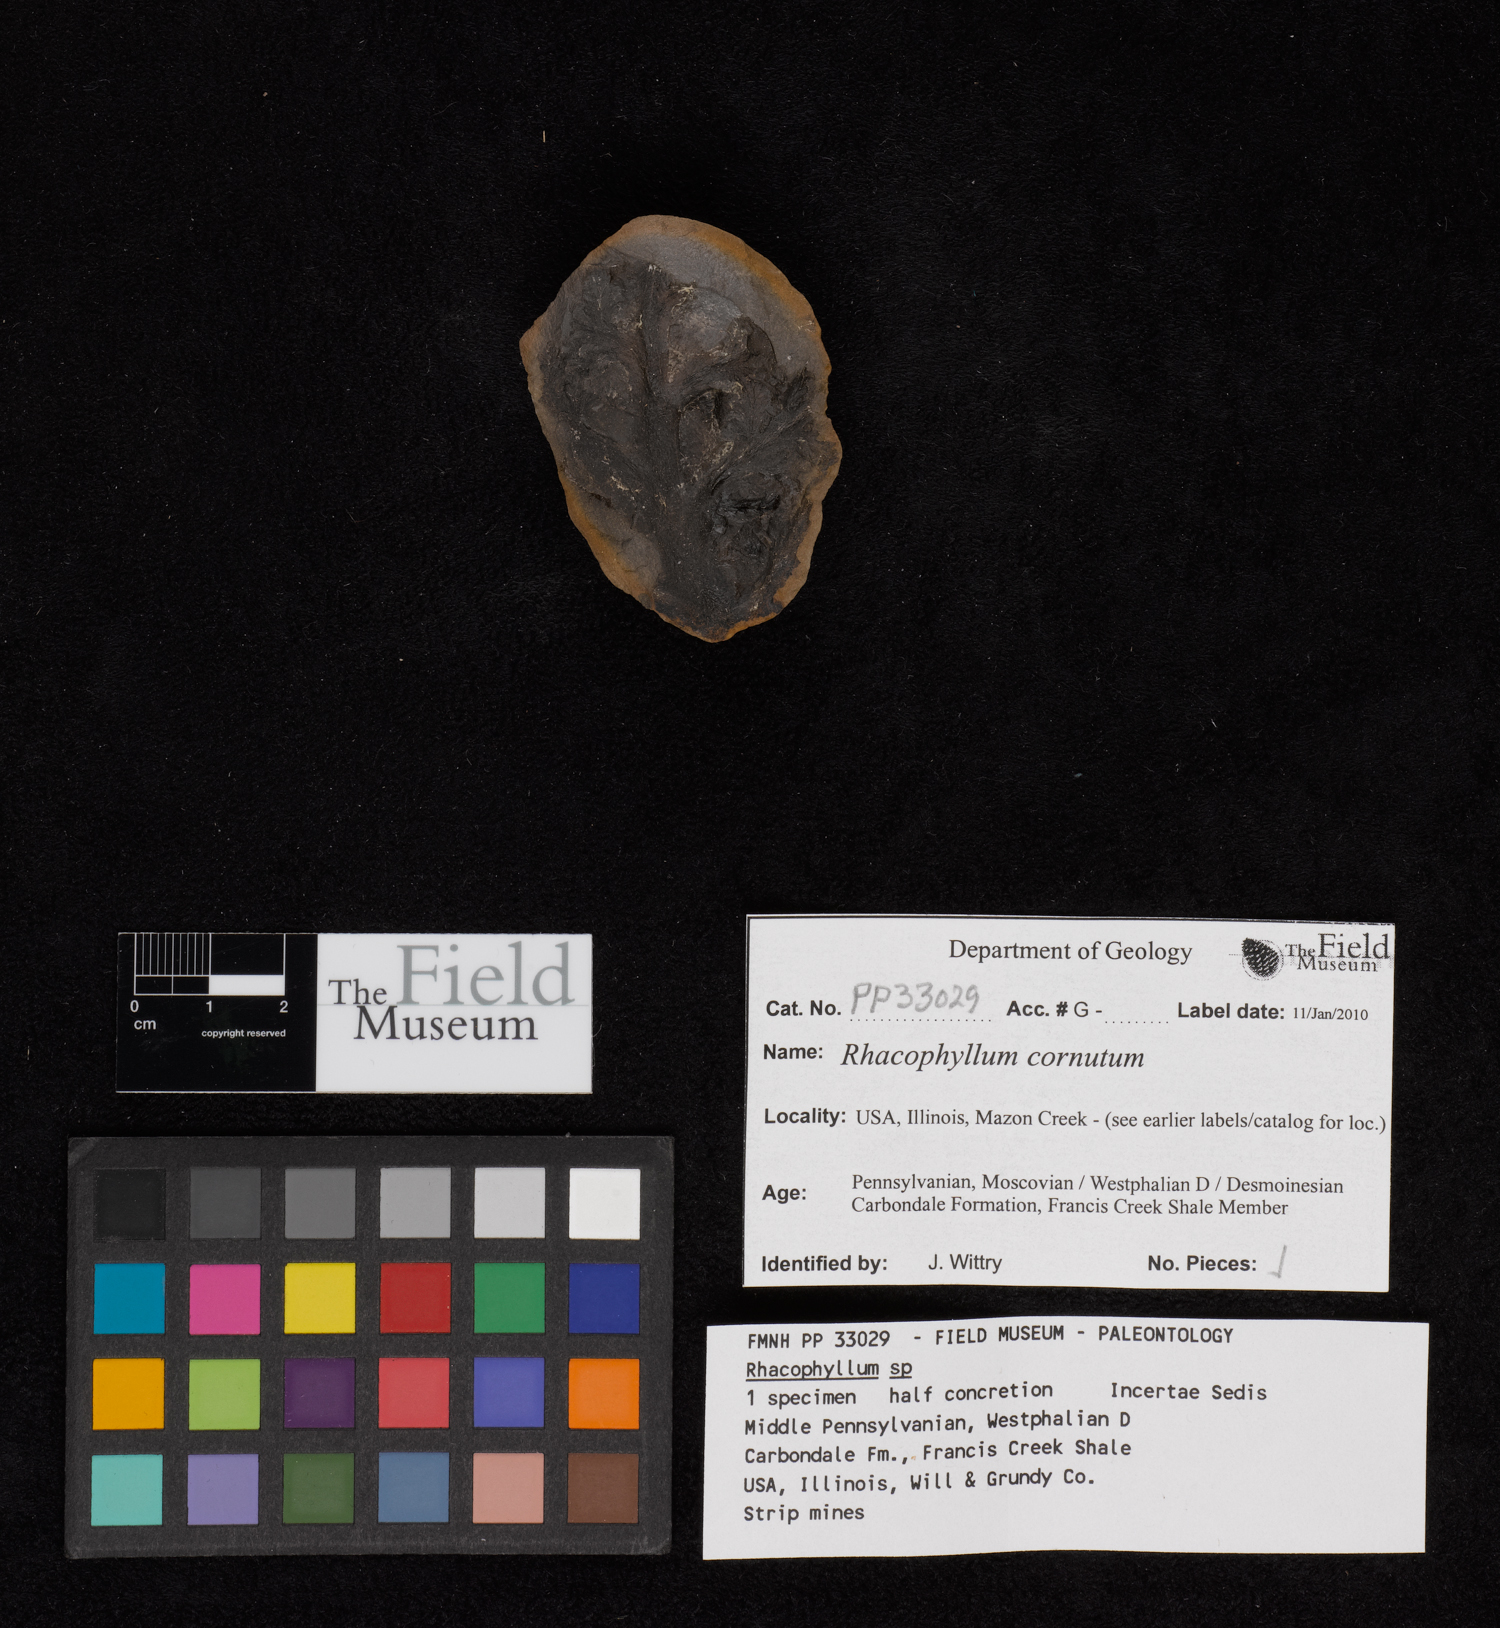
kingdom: Plantae
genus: Rhacophyllum
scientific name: Rhacophyllum
